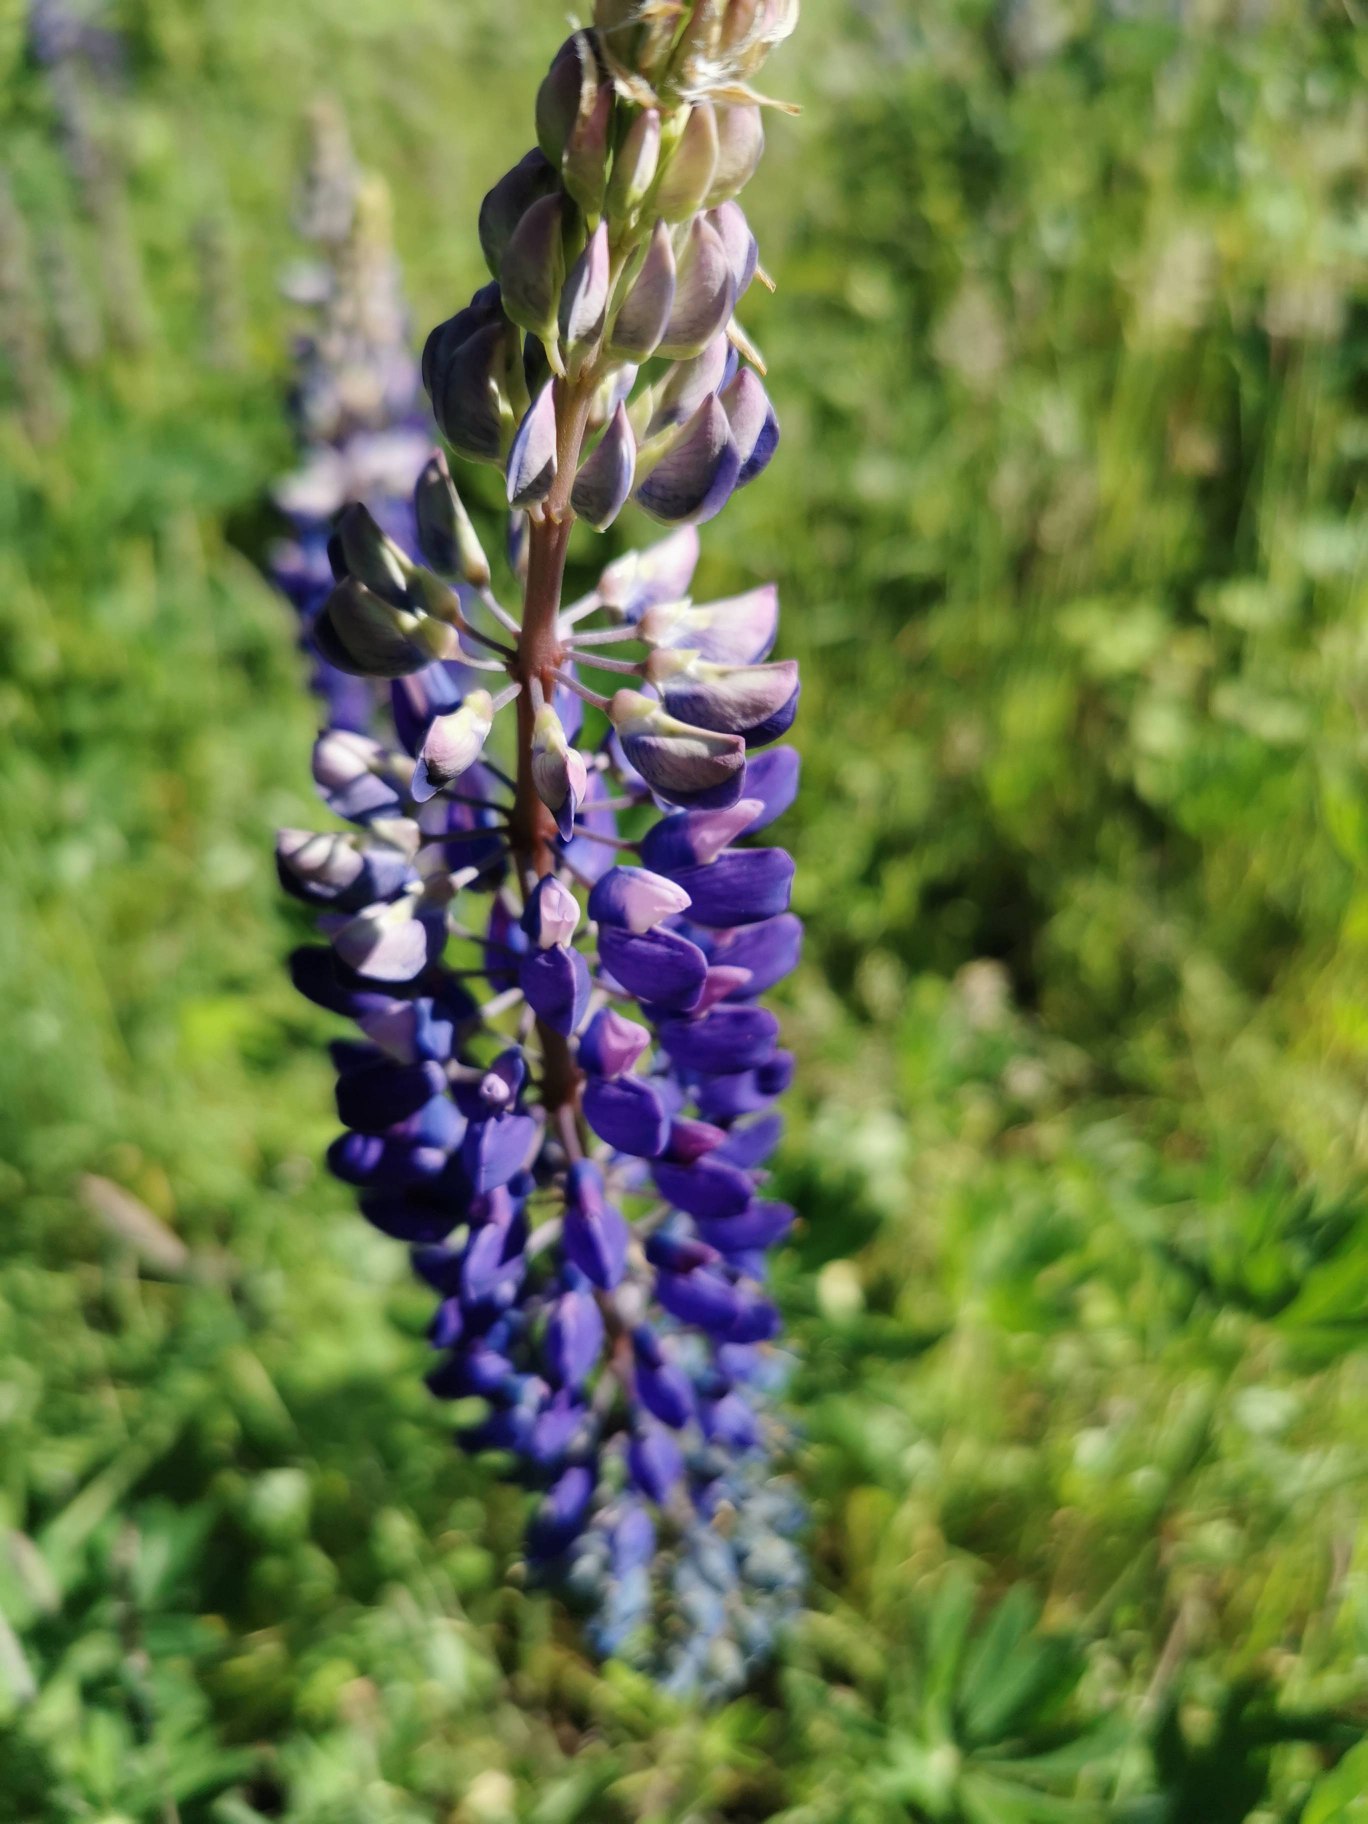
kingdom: Plantae
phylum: Tracheophyta
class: Magnoliopsida
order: Fabales
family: Fabaceae
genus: Lupinus
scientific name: Lupinus polyphyllus
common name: Mangebladet lupin
